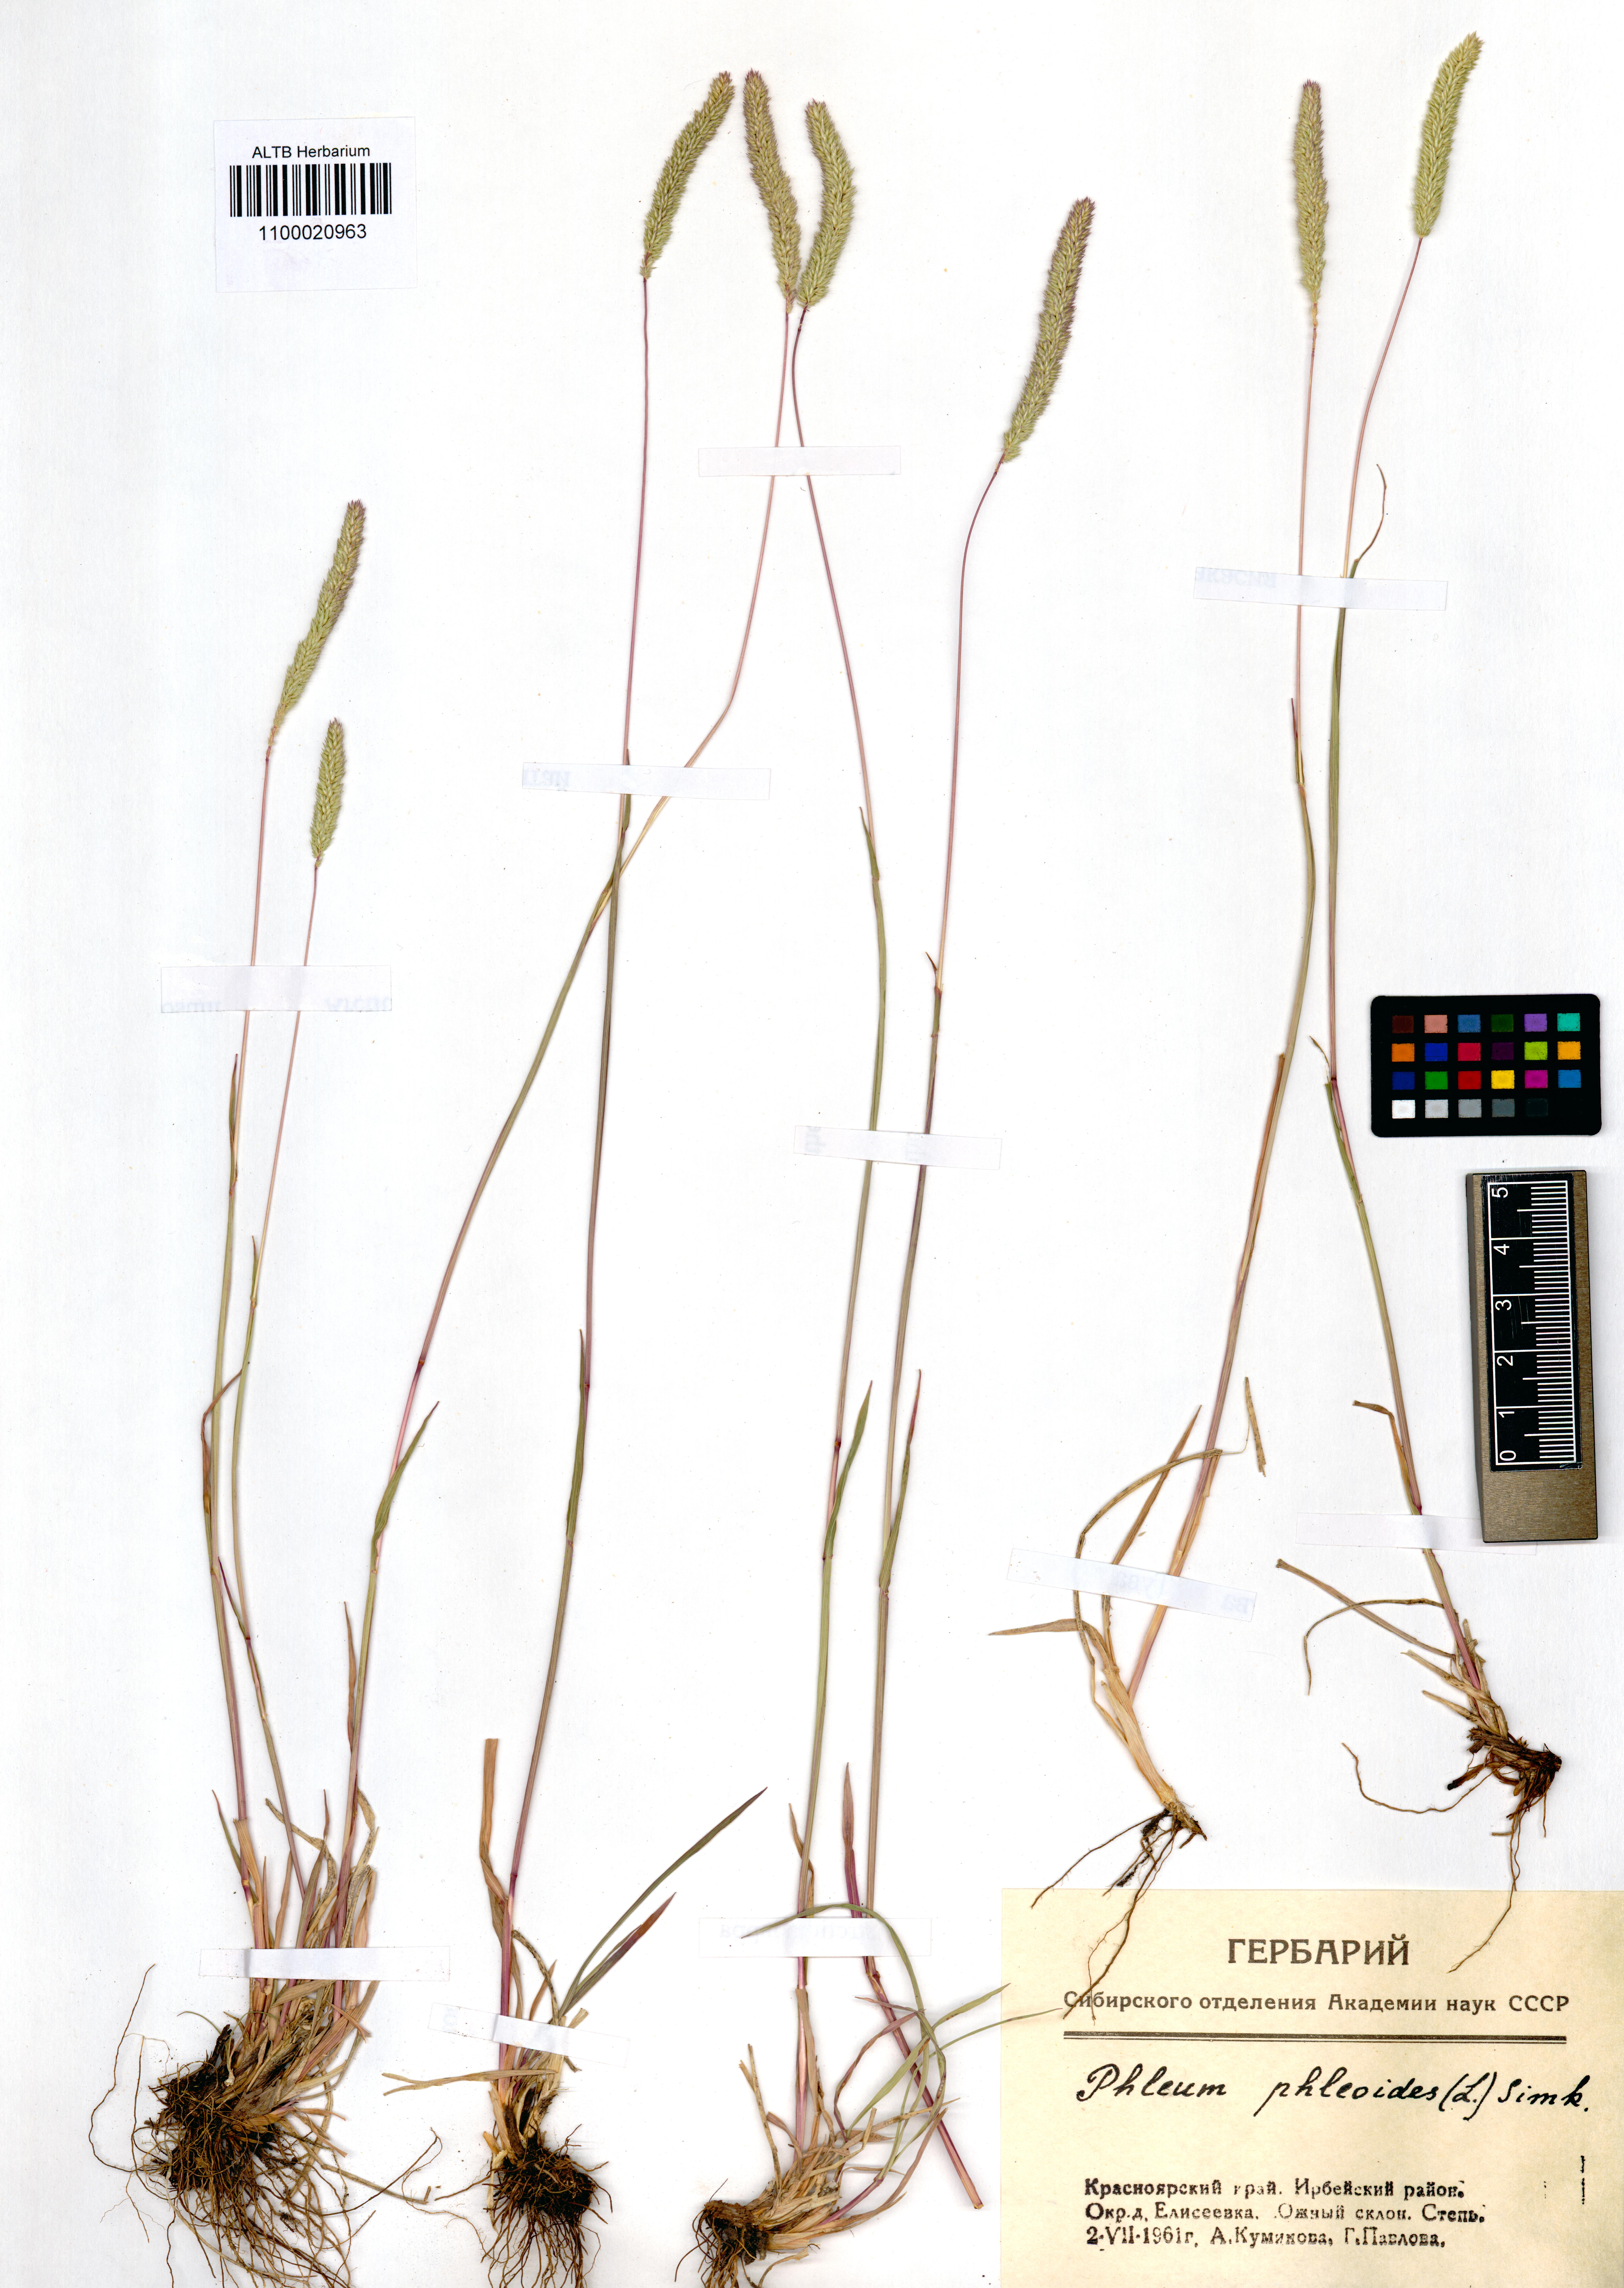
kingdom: Plantae
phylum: Tracheophyta
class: Liliopsida
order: Poales
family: Poaceae
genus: Phleum
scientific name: Phleum phleoides
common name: Purple-stem cat's-tail
